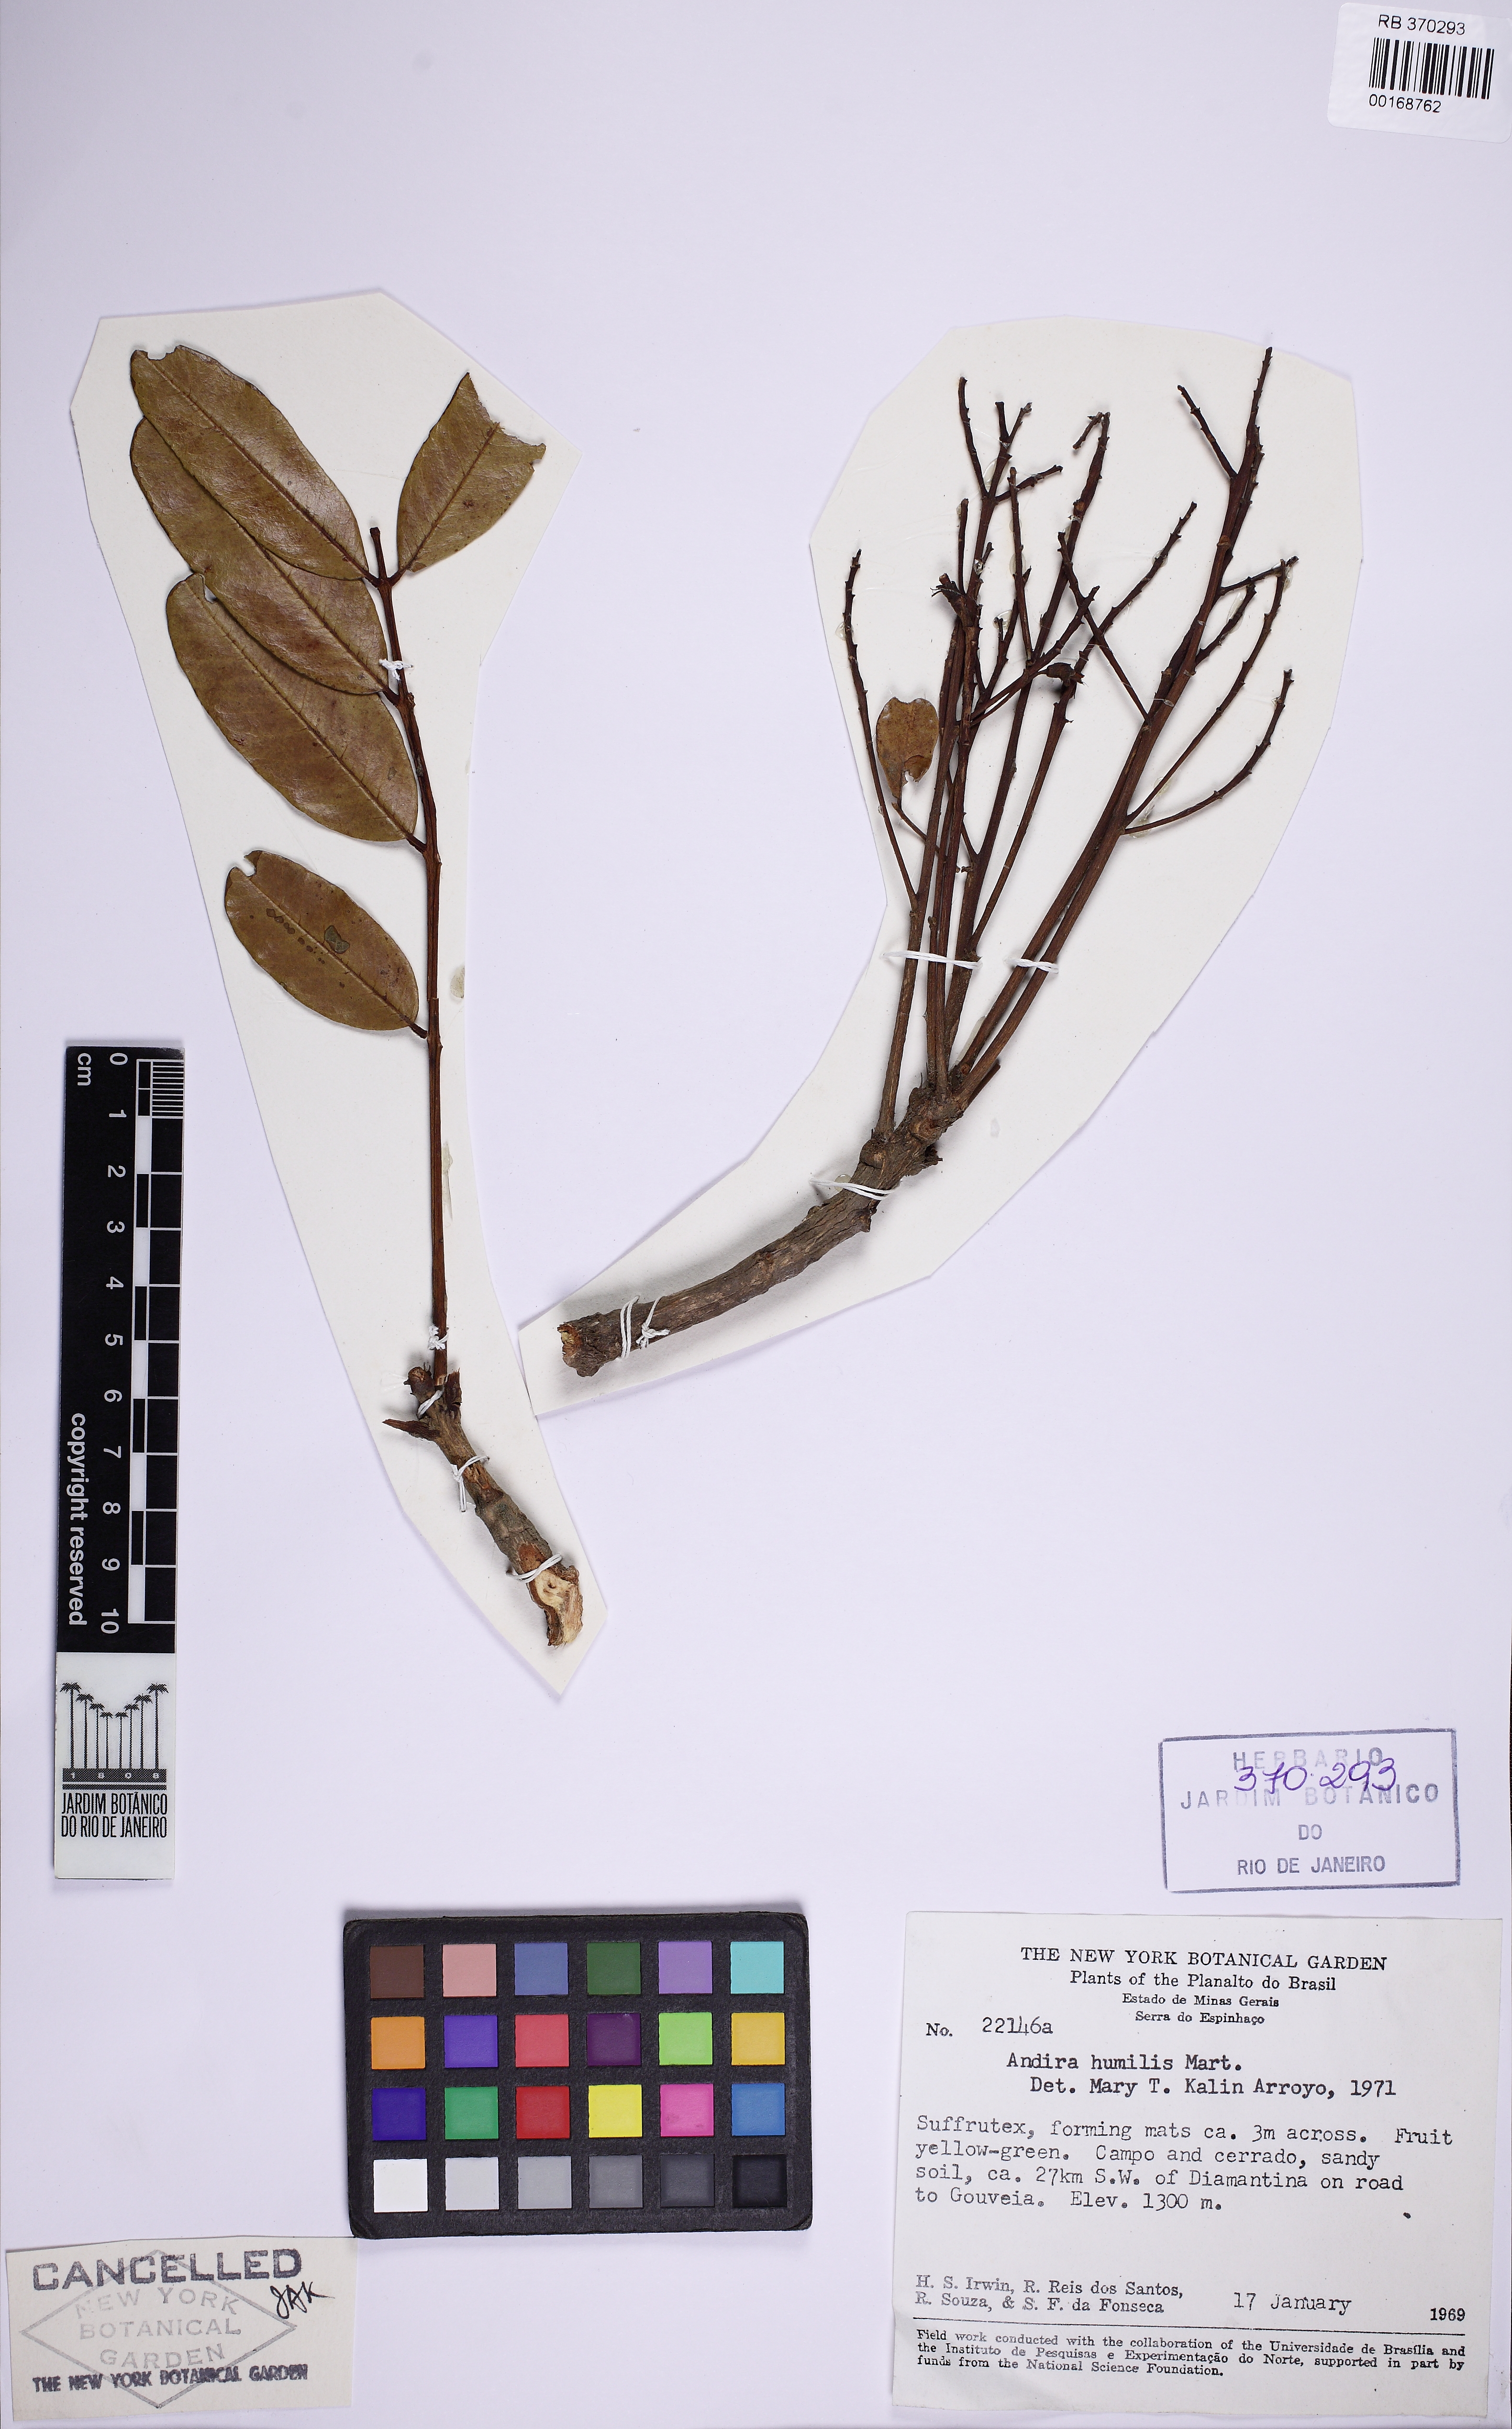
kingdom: Plantae
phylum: Tracheophyta
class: Magnoliopsida
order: Fabales
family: Fabaceae
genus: Andira
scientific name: Andira humilis
